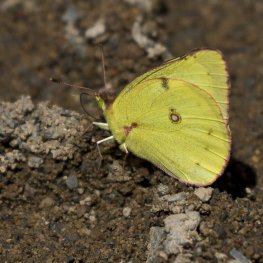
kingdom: Animalia
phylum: Arthropoda
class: Insecta
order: Lepidoptera
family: Pieridae
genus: Colias
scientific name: Colias philodice
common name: Clouded Sulphur
